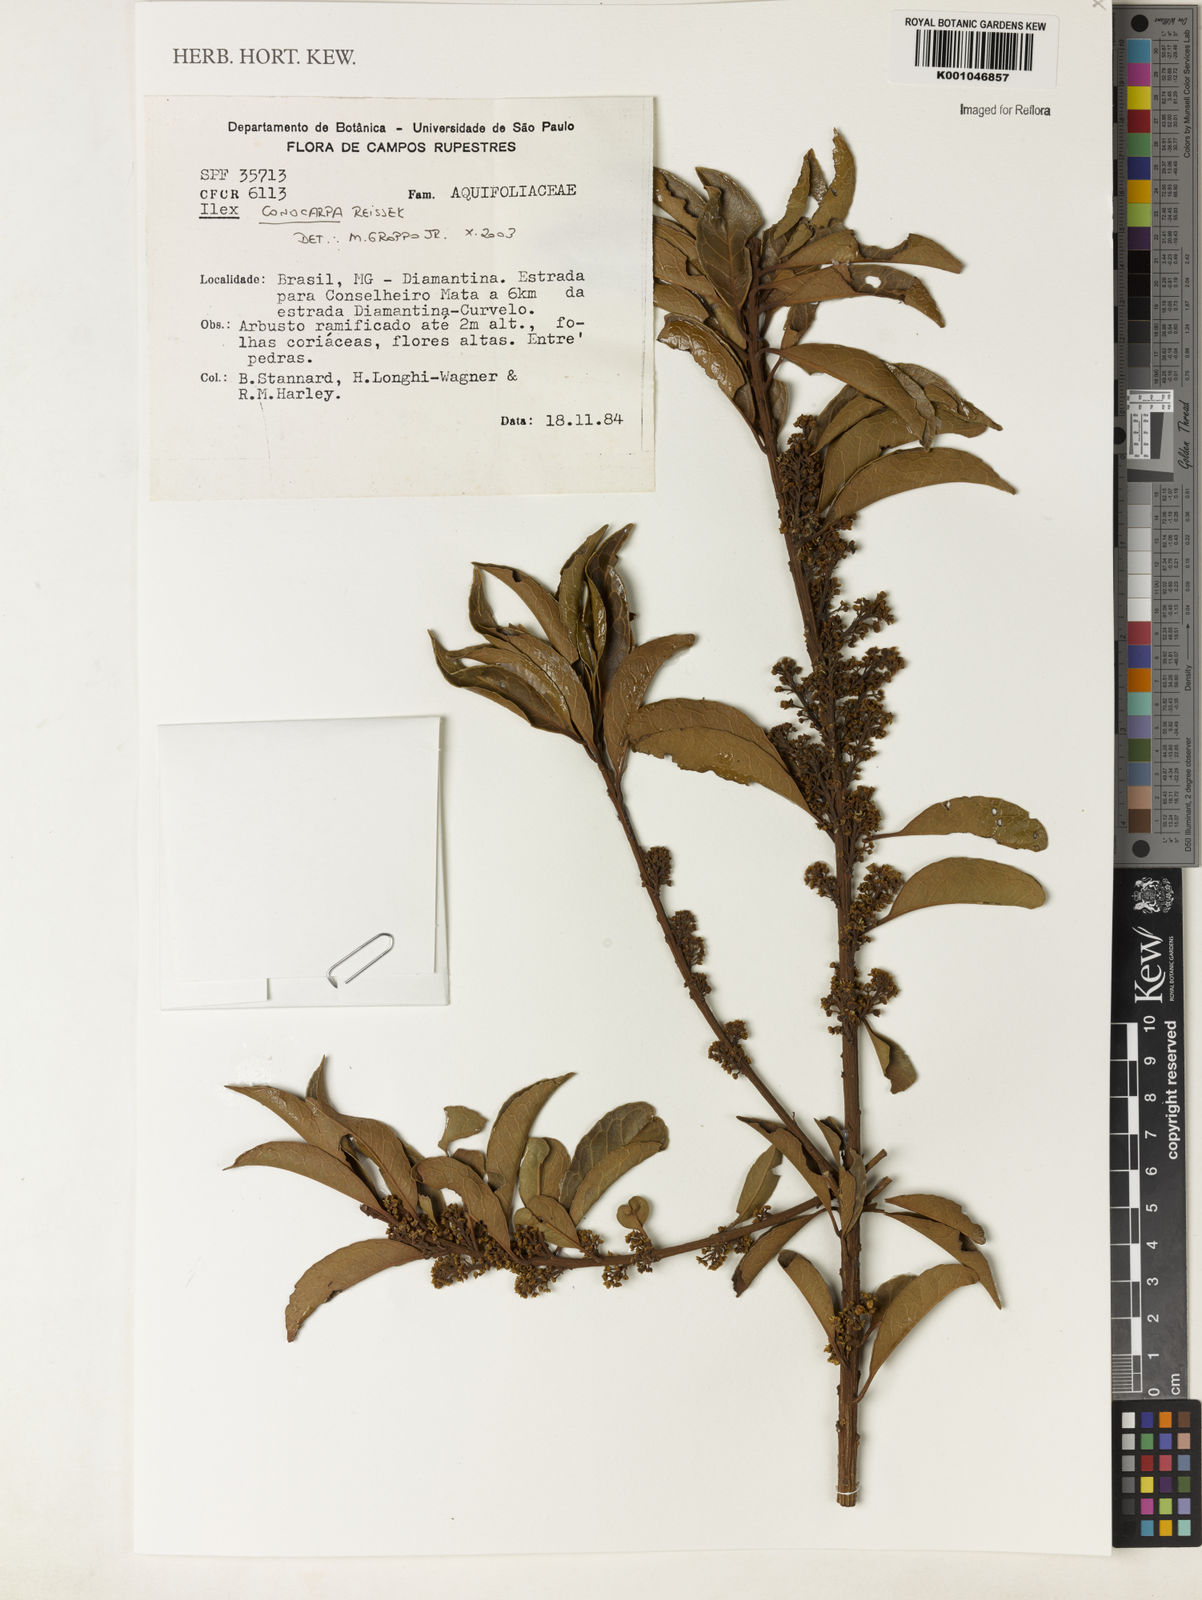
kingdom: Plantae
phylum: Tracheophyta
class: Magnoliopsida
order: Aquifoliales
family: Aquifoliaceae
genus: Ilex
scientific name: Ilex conocarpa
